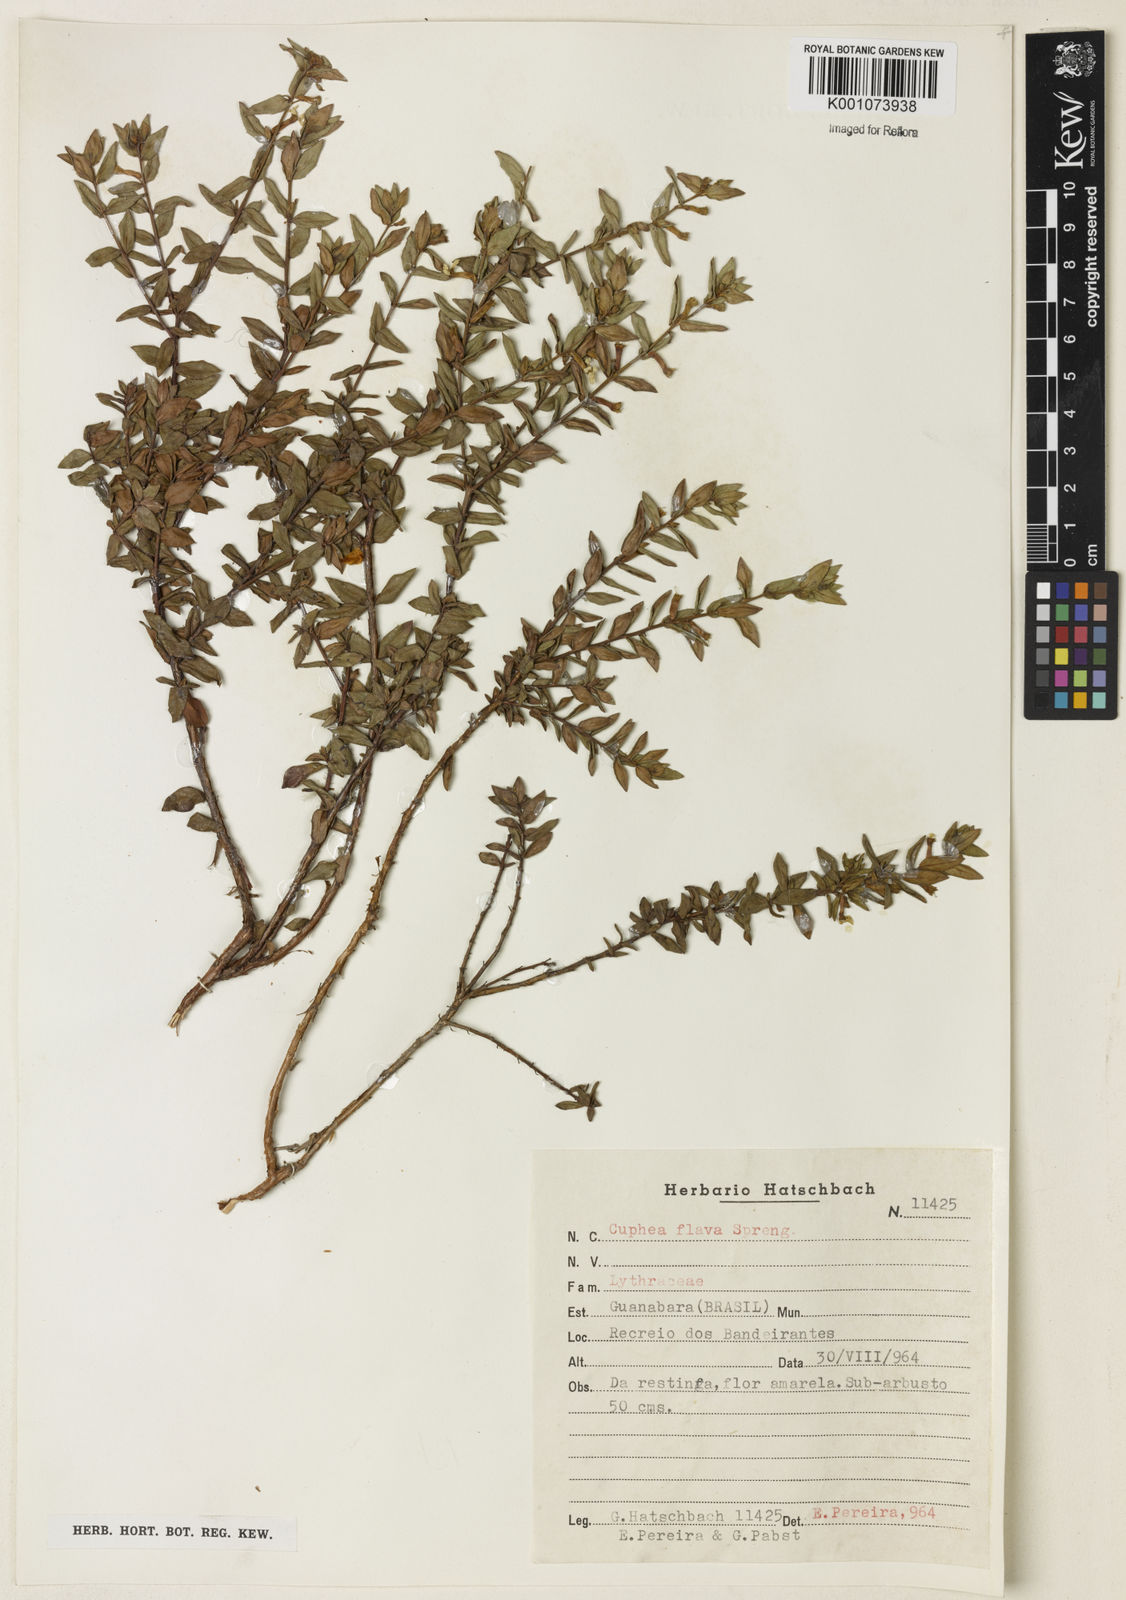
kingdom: Plantae
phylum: Tracheophyta
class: Magnoliopsida
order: Myrtales
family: Lythraceae
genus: Cuphea
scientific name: Cuphea flava
